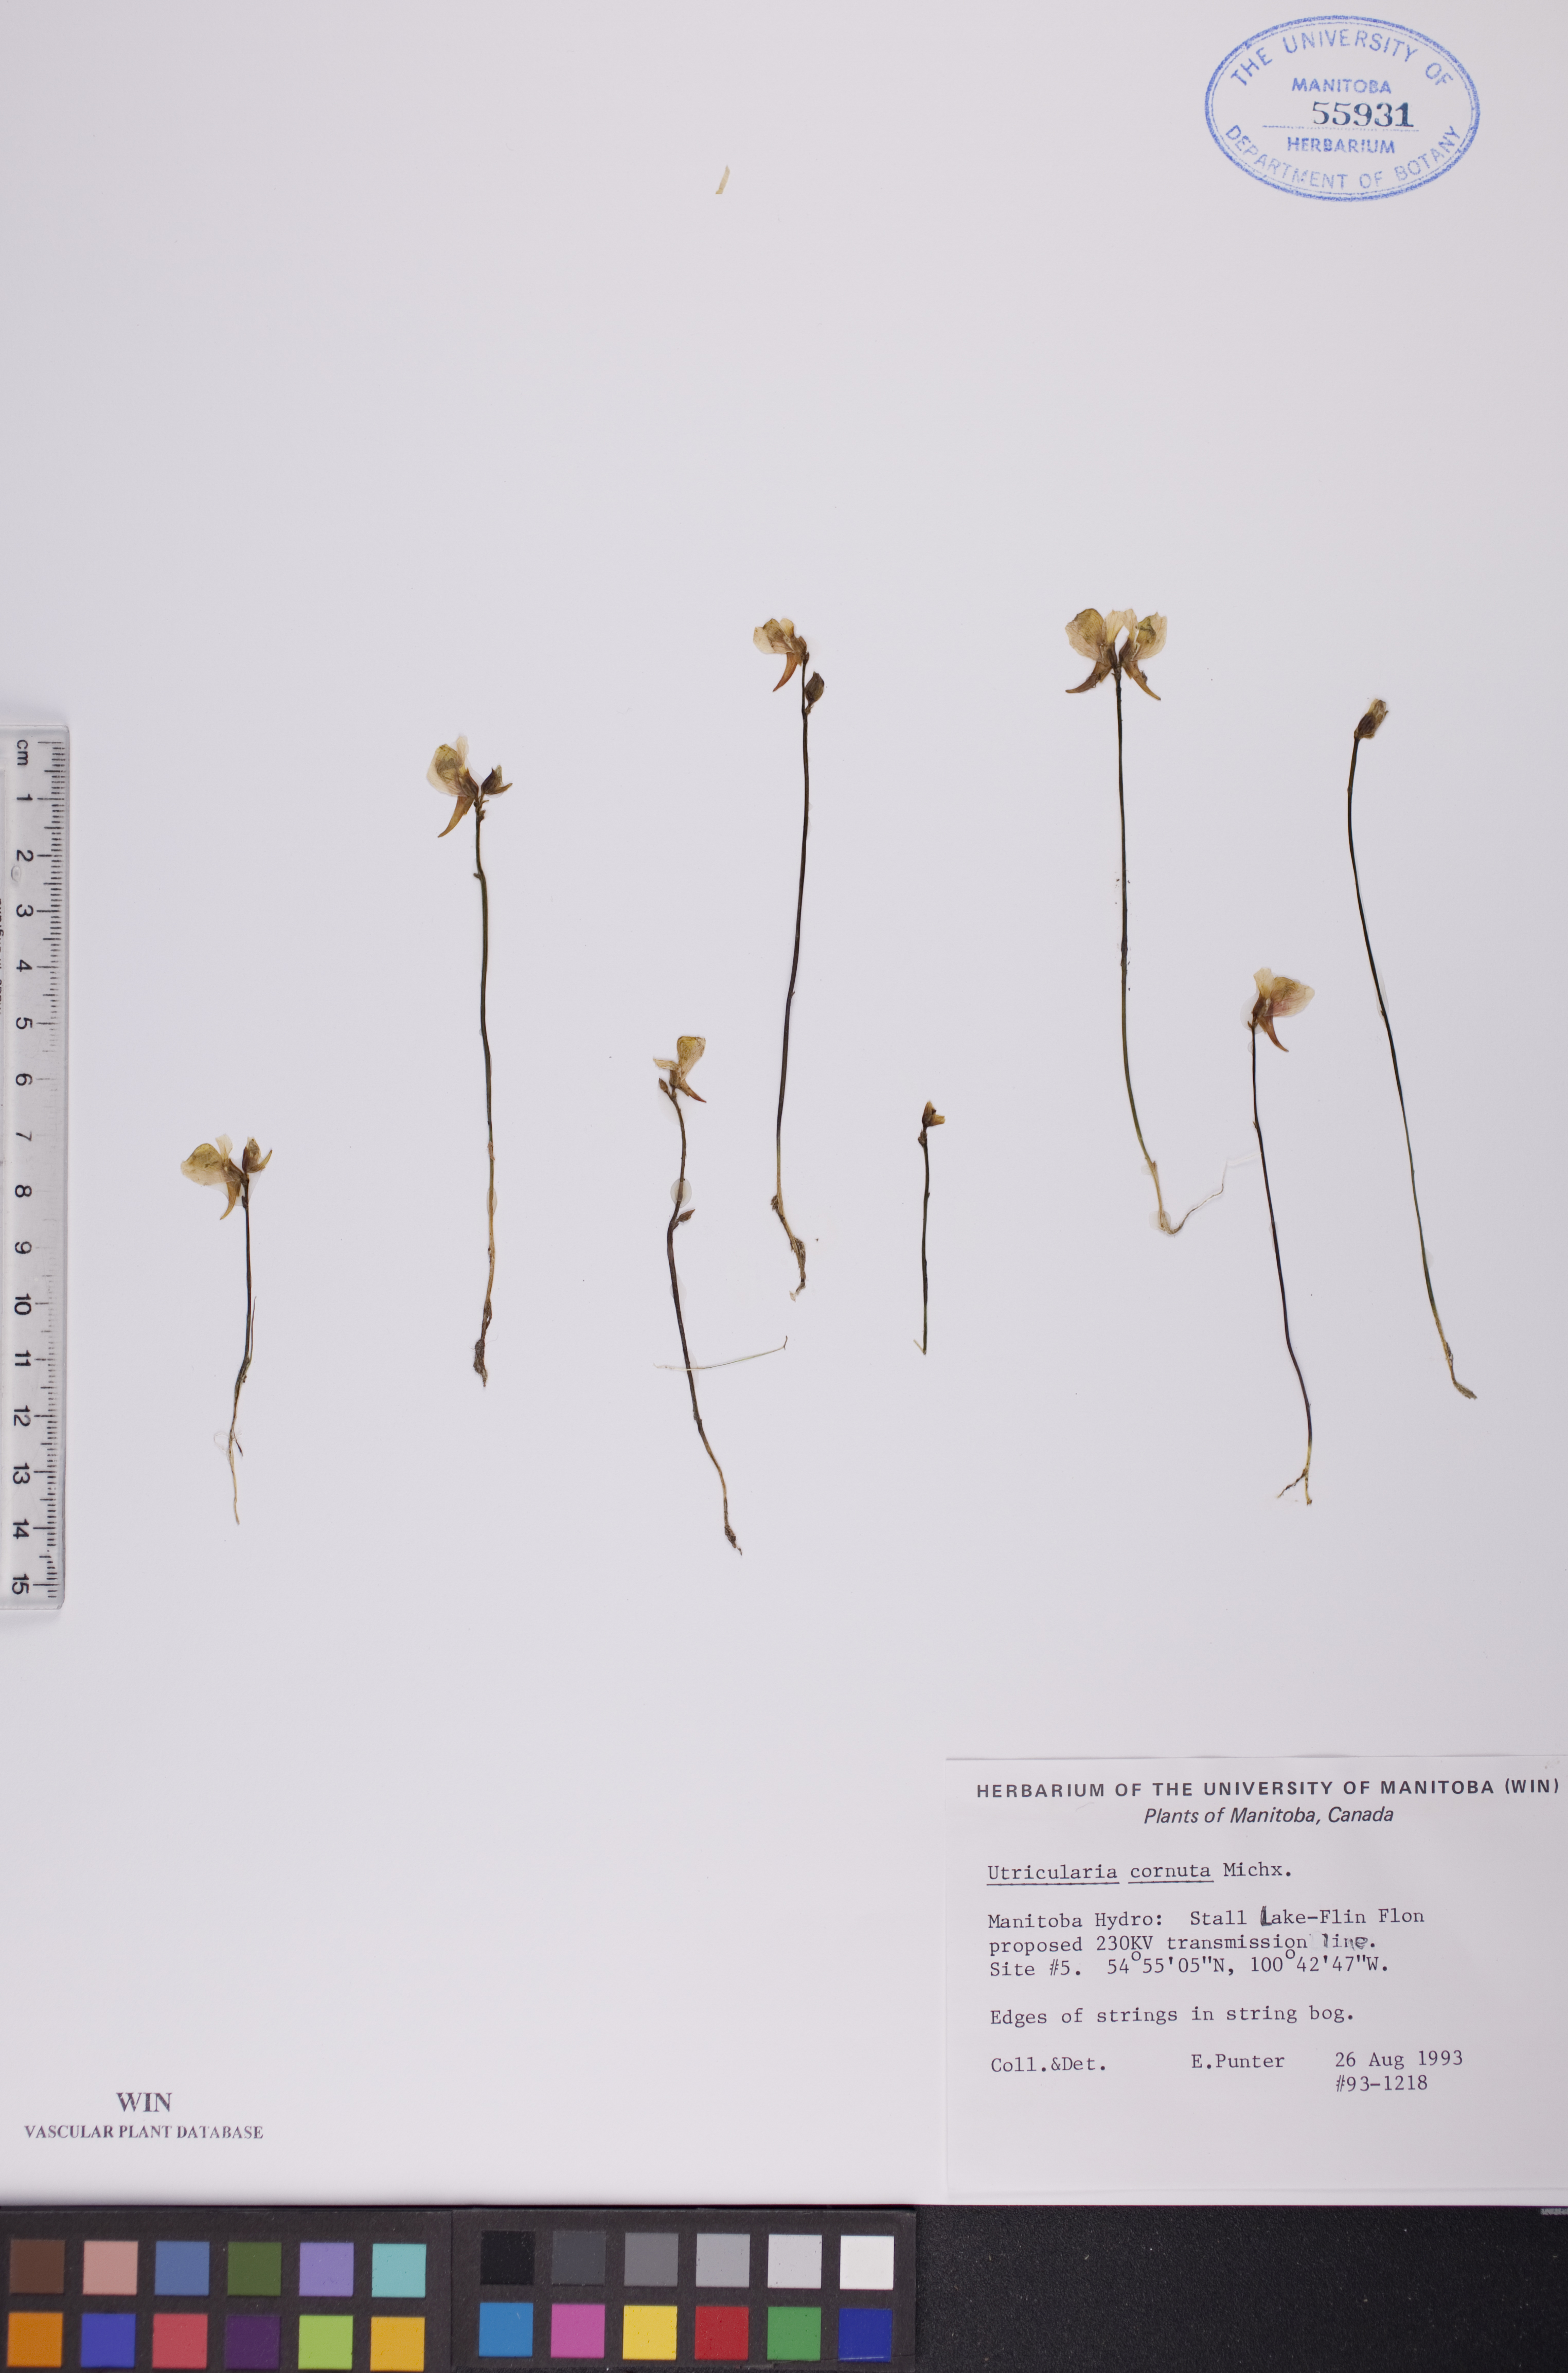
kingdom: Plantae
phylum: Tracheophyta
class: Magnoliopsida
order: Lamiales
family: Lentibulariaceae
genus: Utricularia
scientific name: Utricularia cornuta
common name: Horned bladderwort
